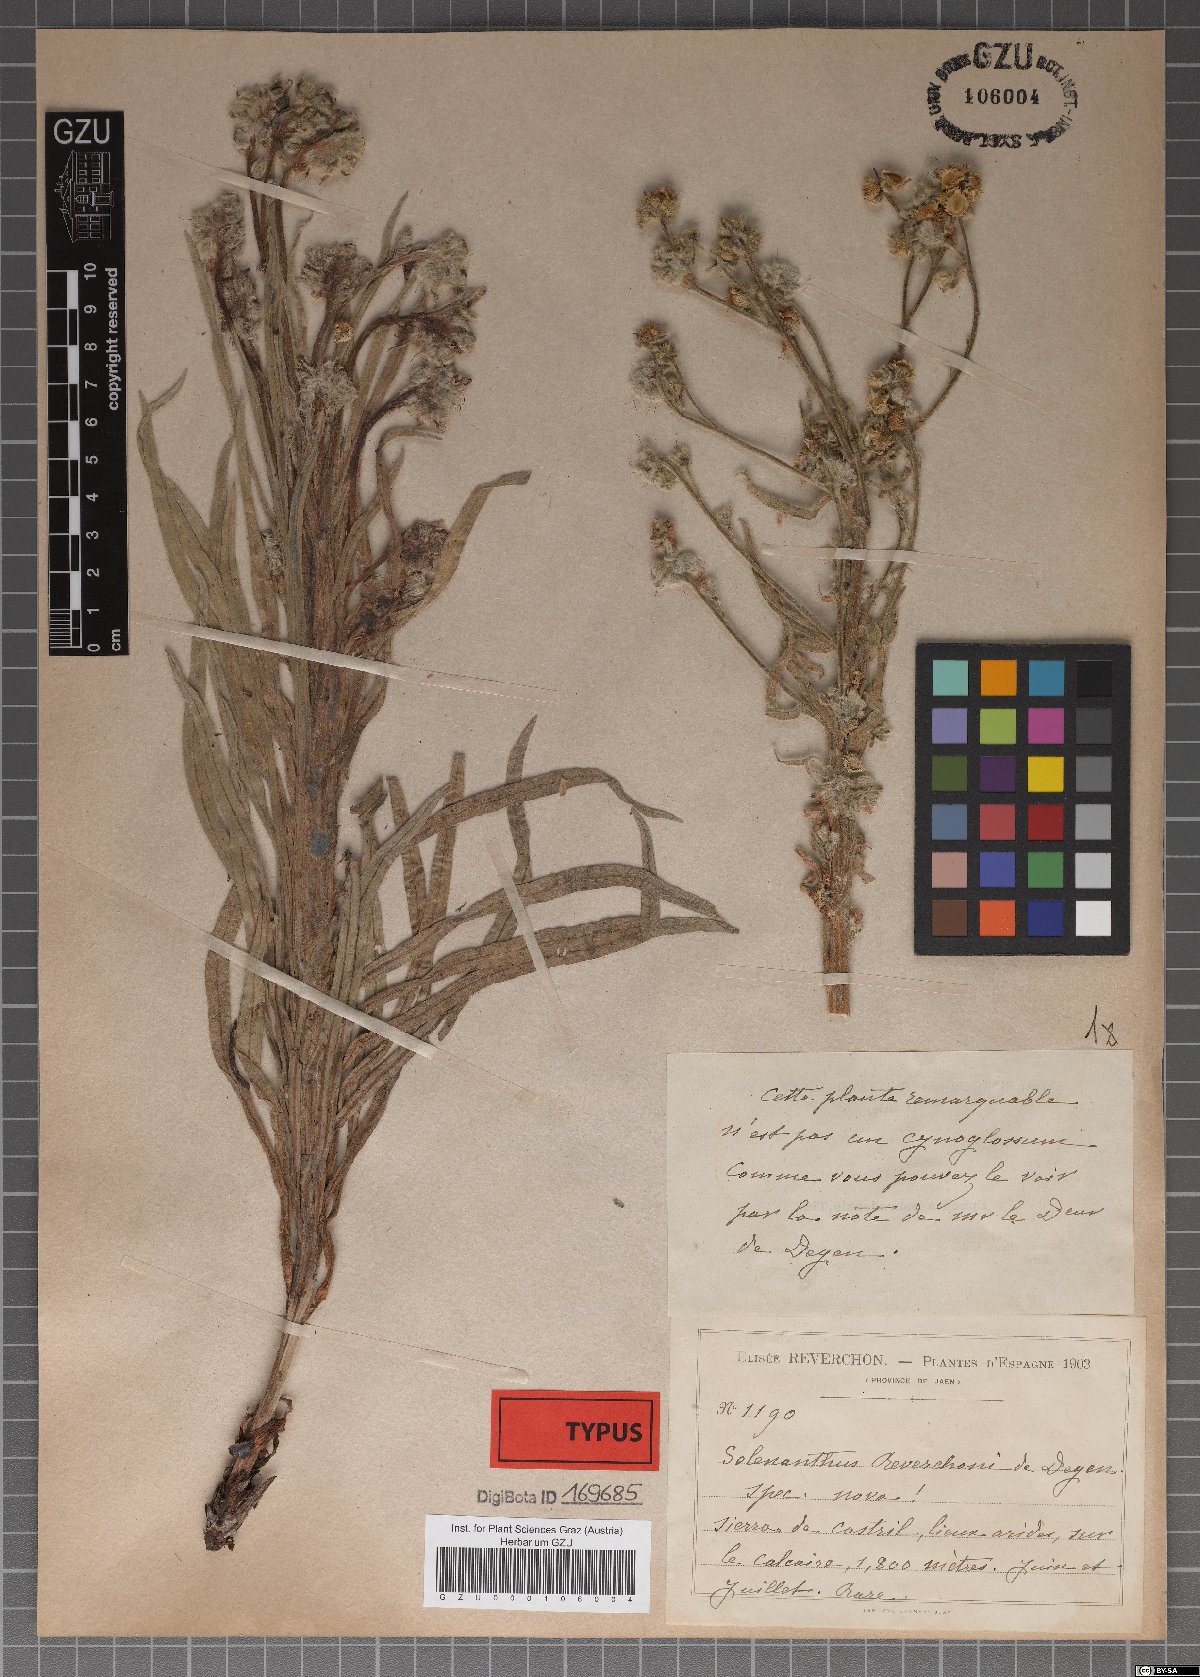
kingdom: Plantae
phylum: Tracheophyta
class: Magnoliopsida
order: Boraginales
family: Boraginaceae
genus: Solenanthus
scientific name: Solenanthus reverchonii
